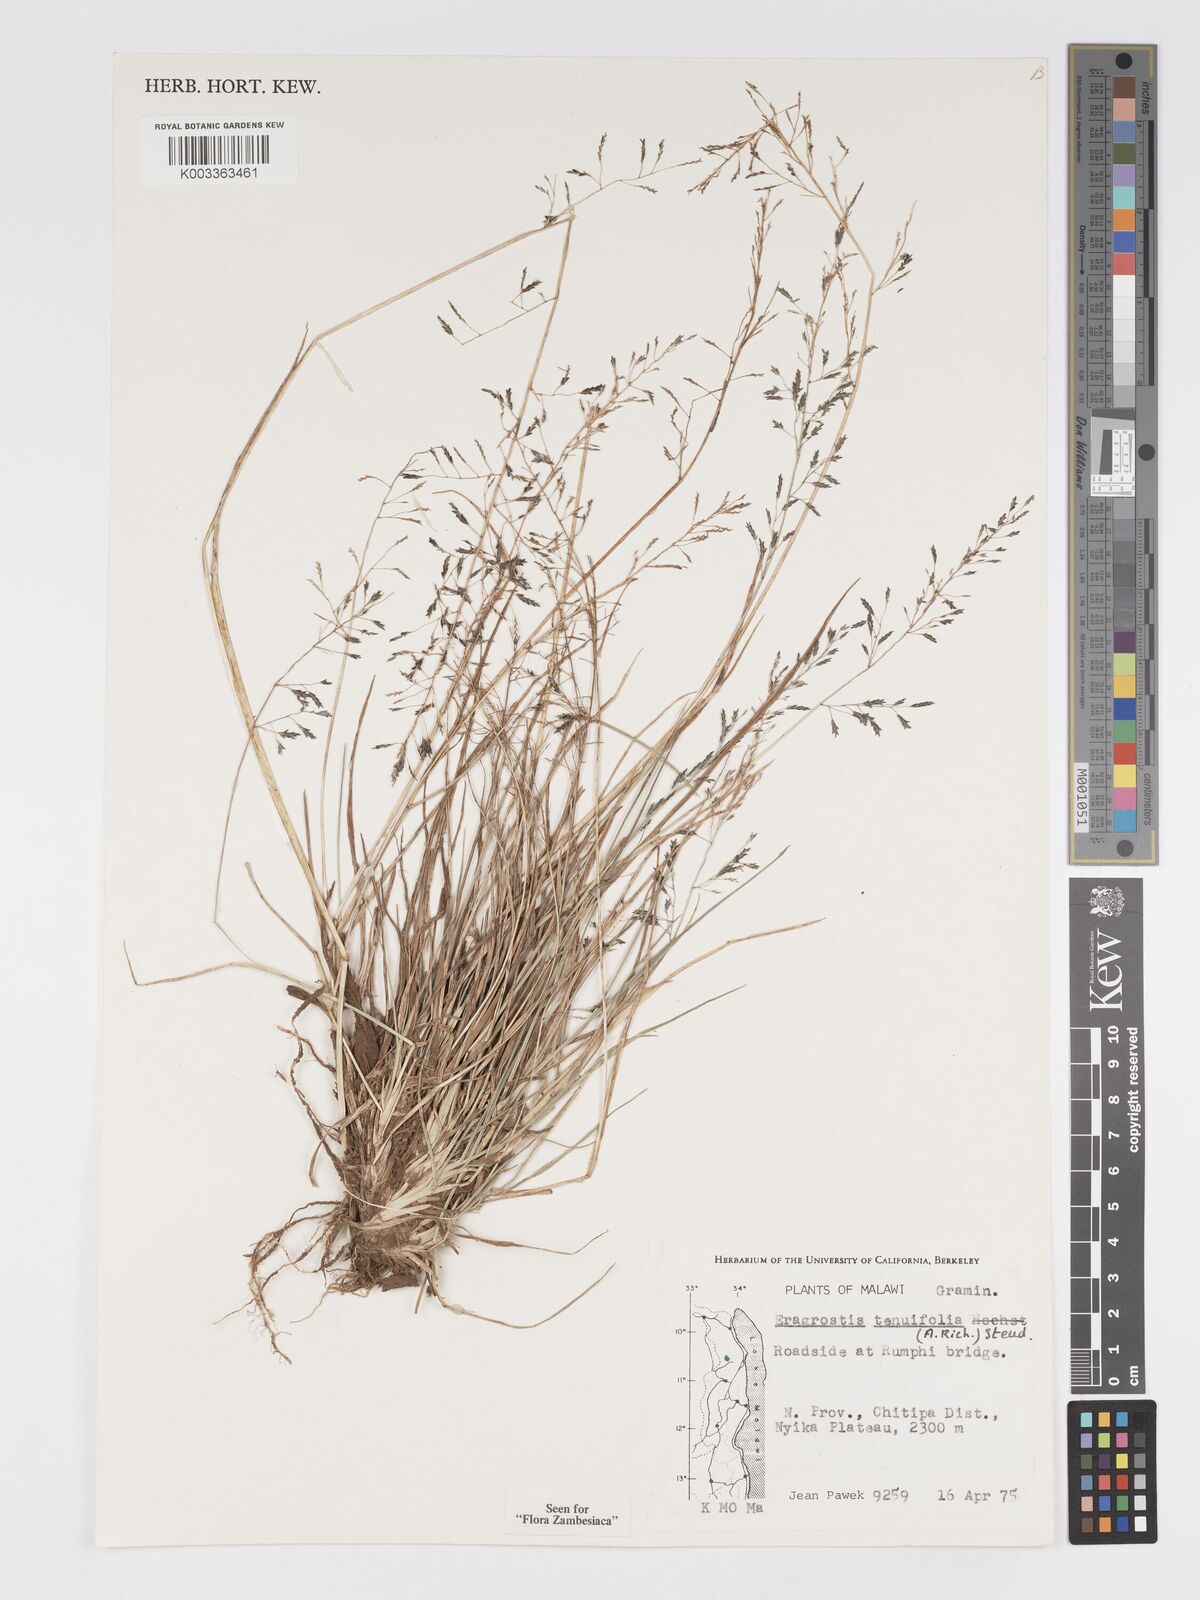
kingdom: Plantae
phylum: Tracheophyta
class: Liliopsida
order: Poales
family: Poaceae
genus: Eragrostis
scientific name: Eragrostis tenuifolia
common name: Elastic grass
